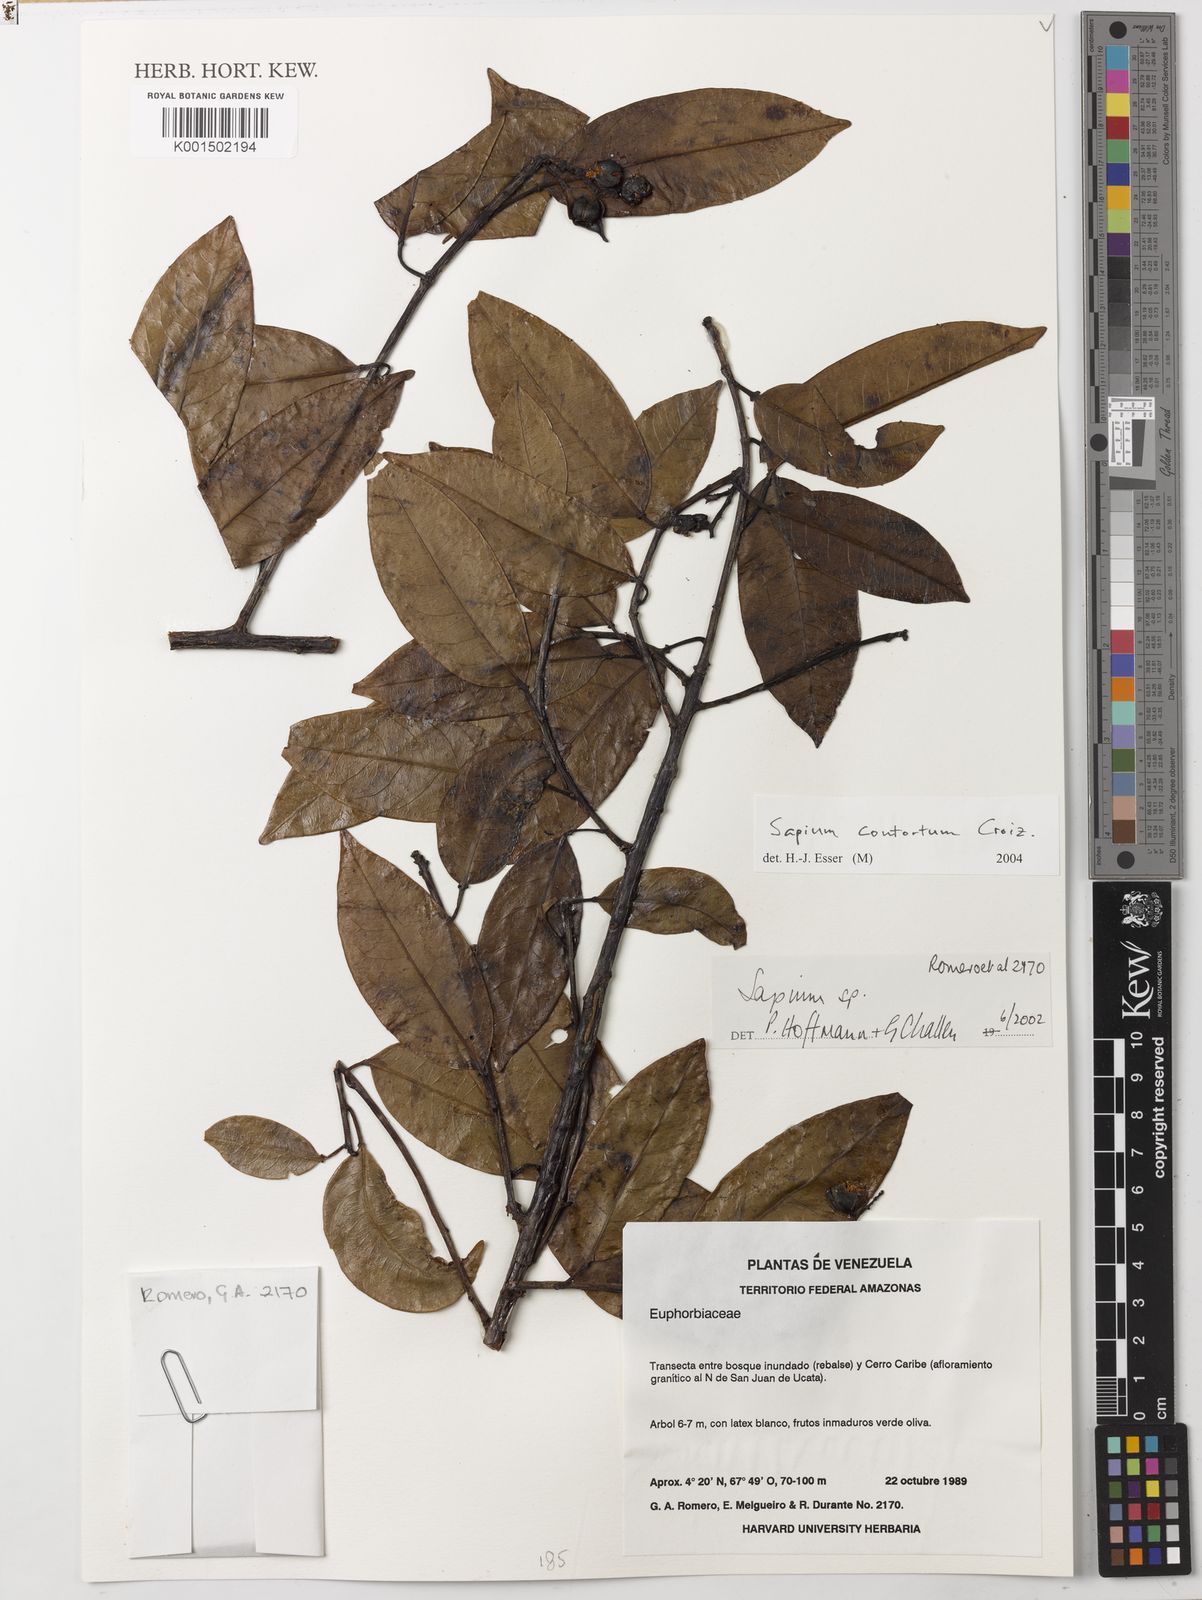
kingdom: Plantae
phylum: Tracheophyta
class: Magnoliopsida
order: Malpighiales
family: Euphorbiaceae
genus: Sapium
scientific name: Sapium contortum
